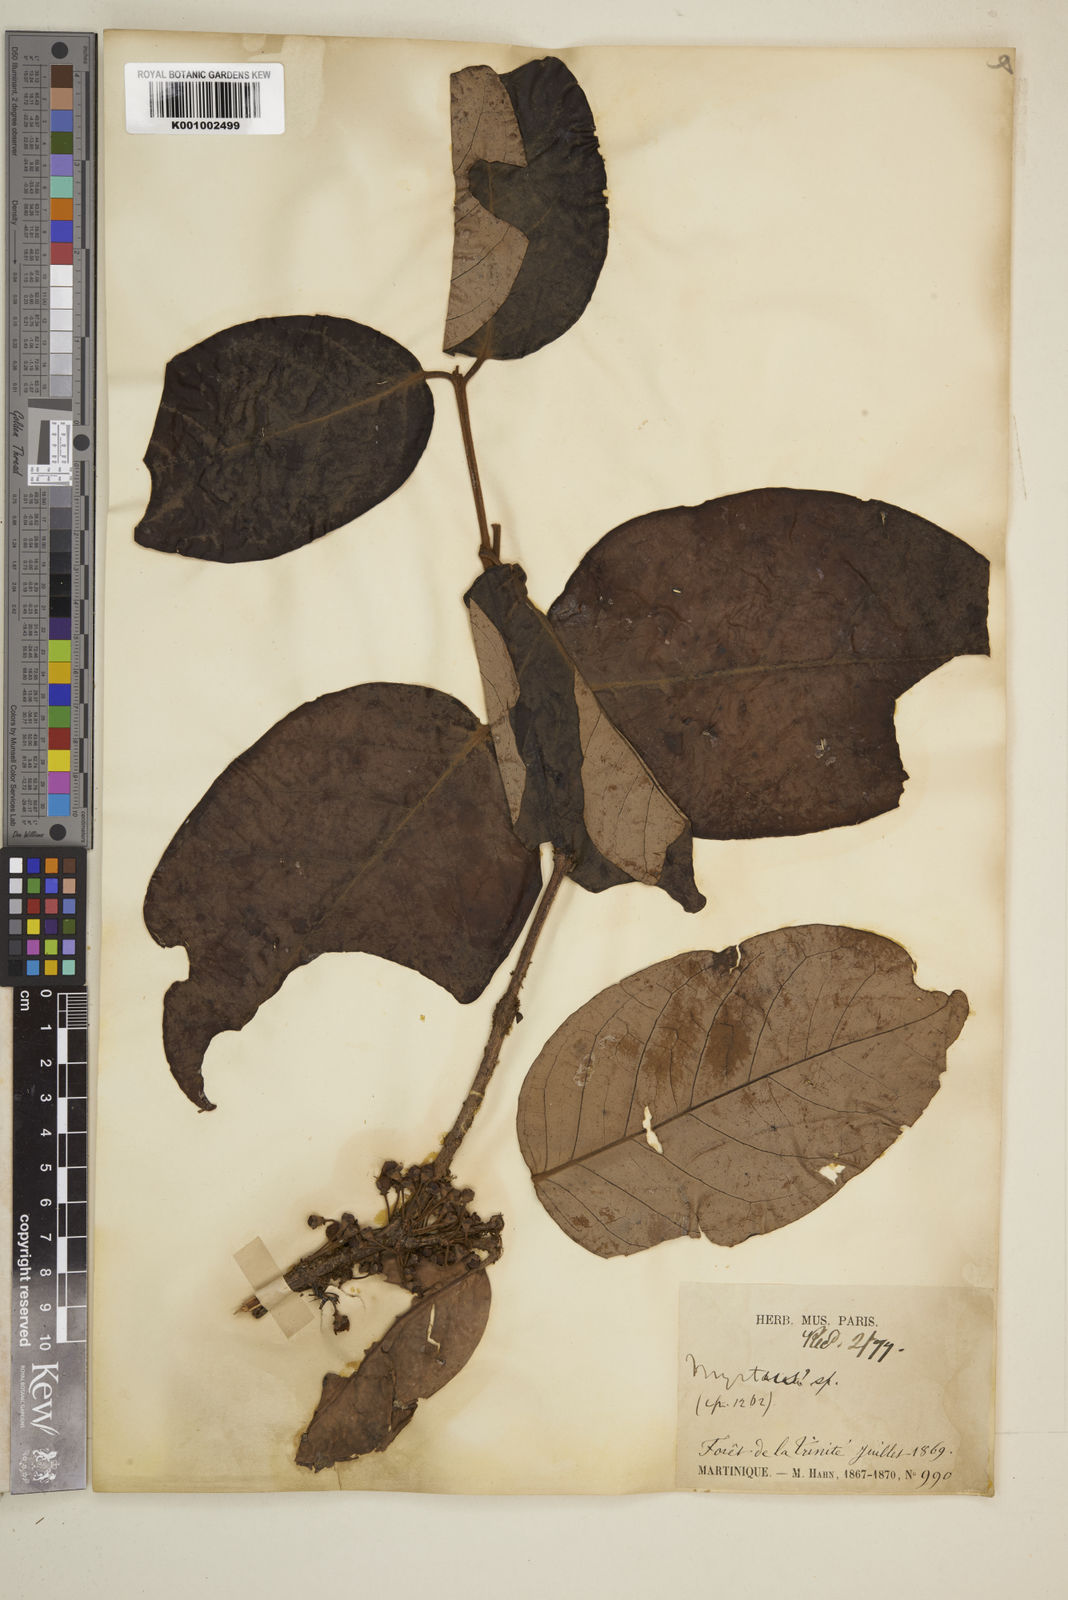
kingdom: Plantae
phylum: Tracheophyta
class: Magnoliopsida
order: Myrtales
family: Myrtaceae
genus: Eugenia
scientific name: Eugenia duchassaingiana
